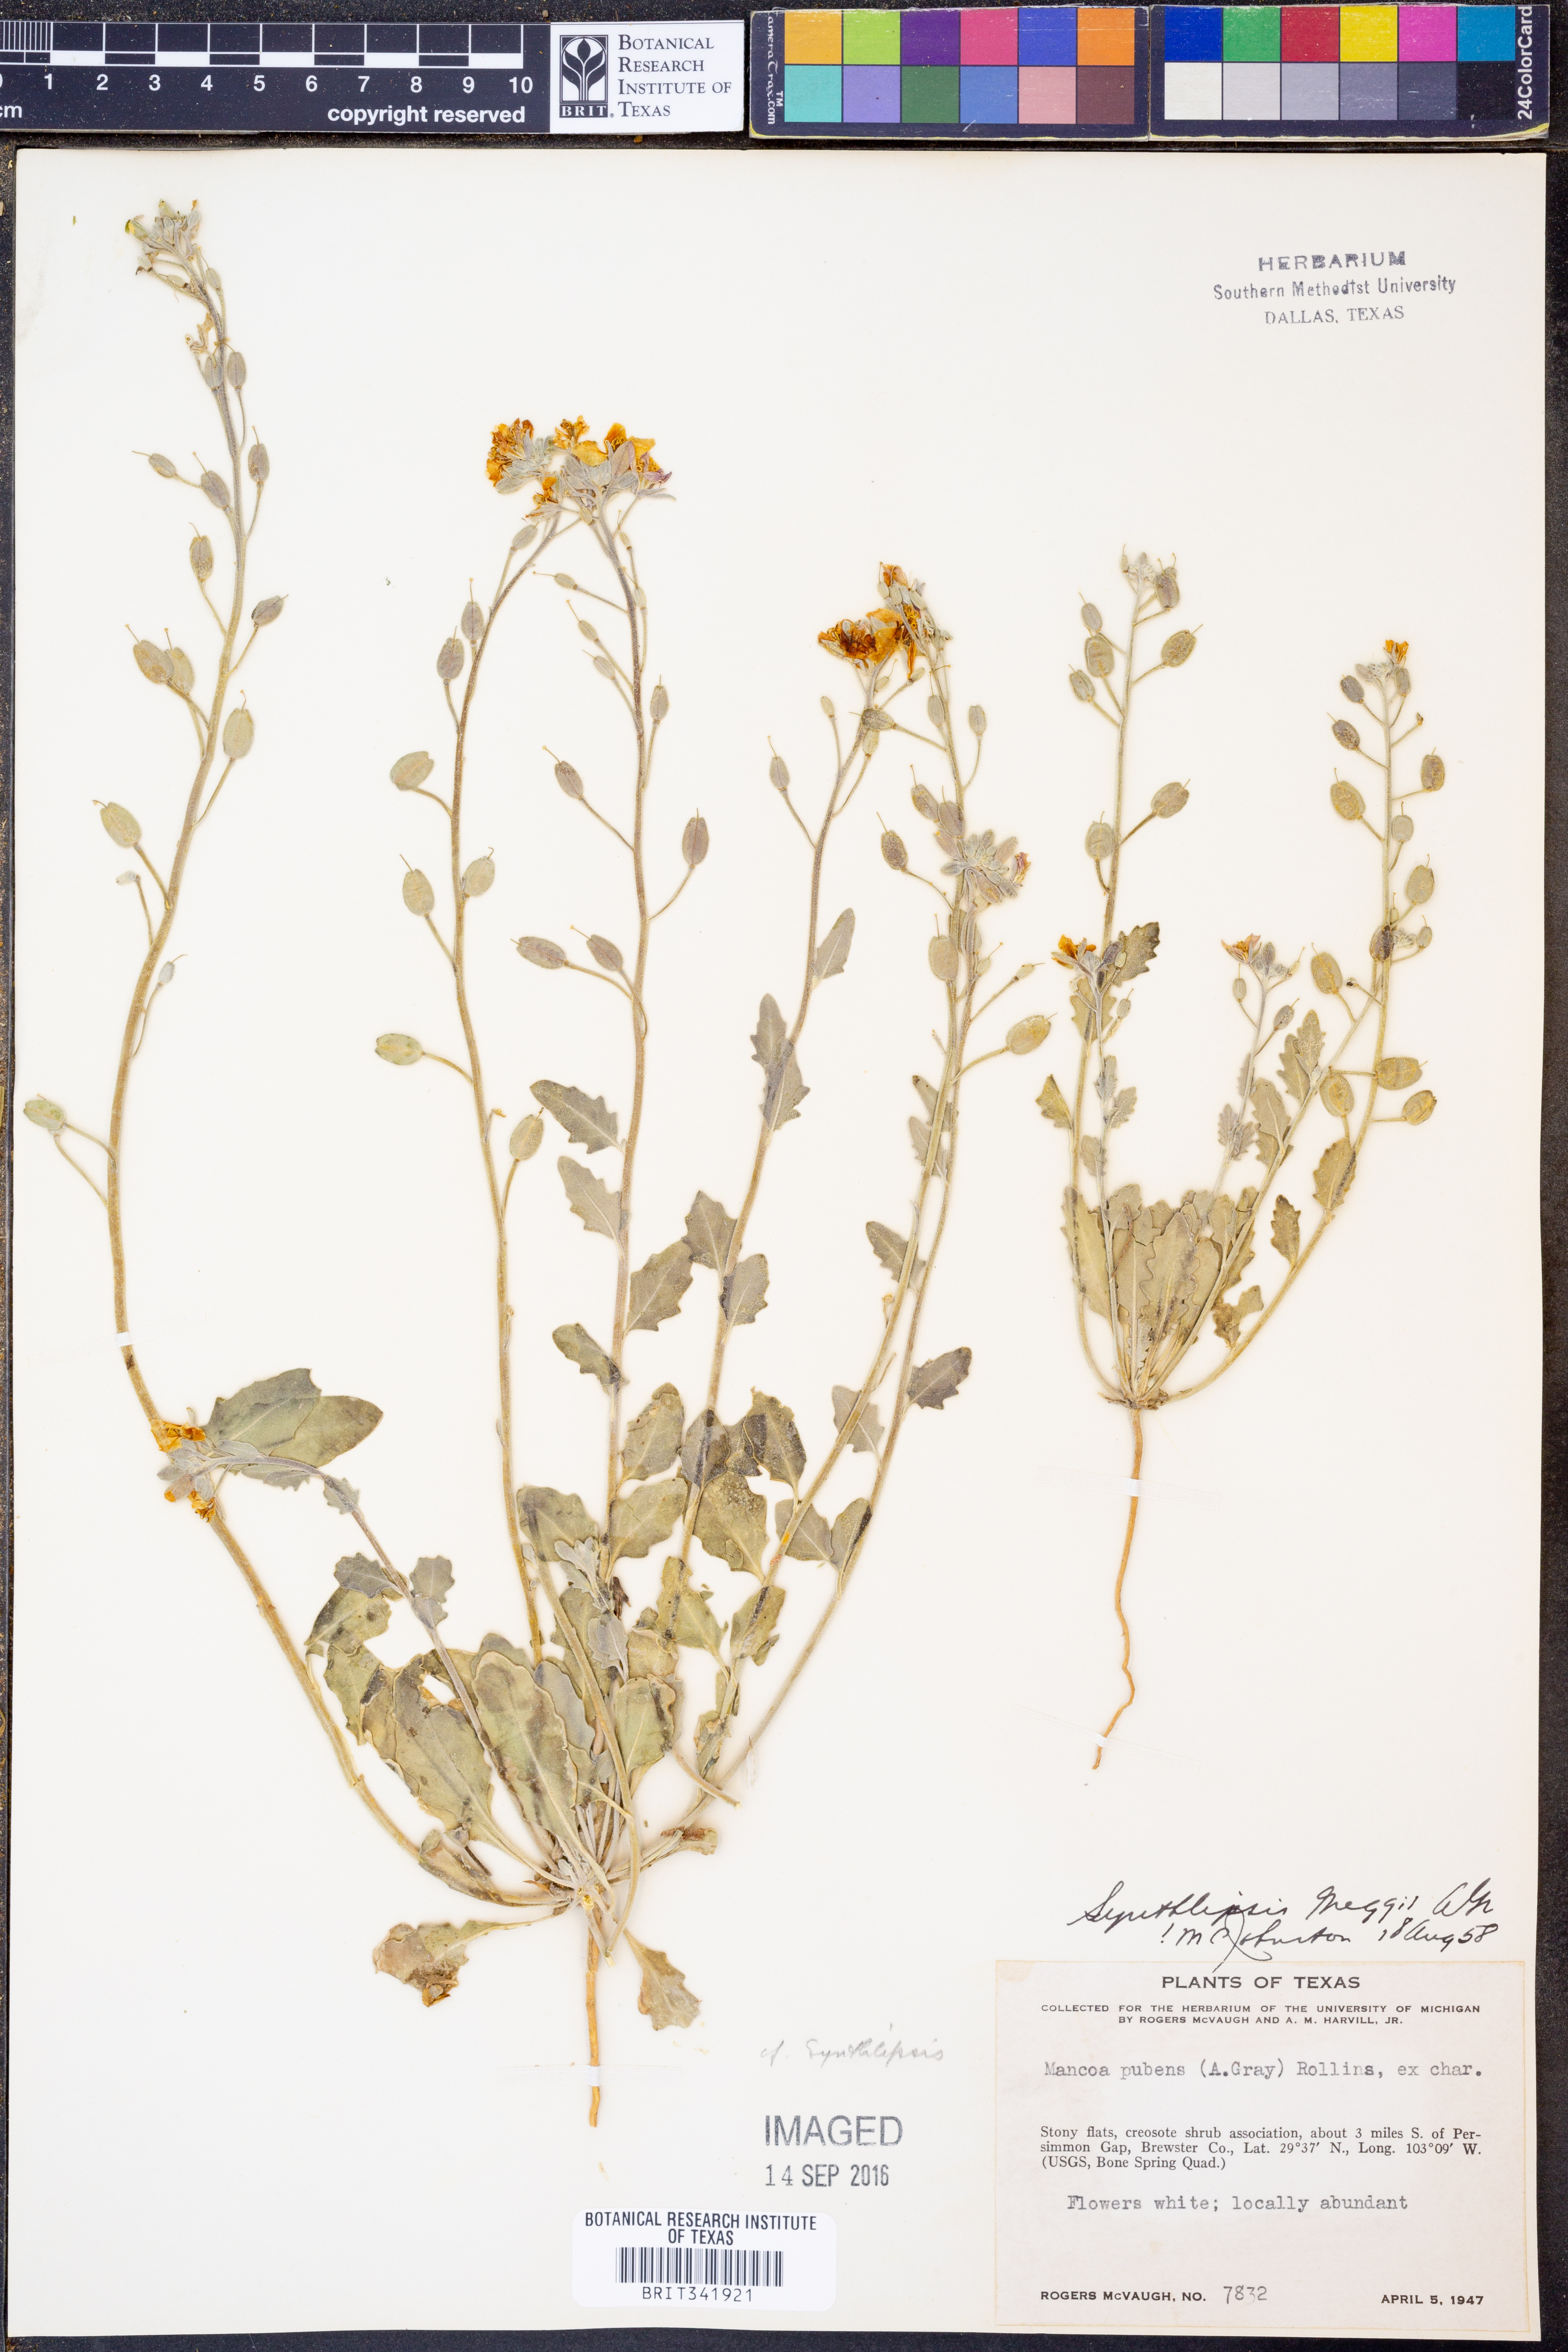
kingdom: Plantae
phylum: Tracheophyta
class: Magnoliopsida
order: Brassicales
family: Brassicaceae
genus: Synthlipsis
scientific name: Synthlipsis greggii
